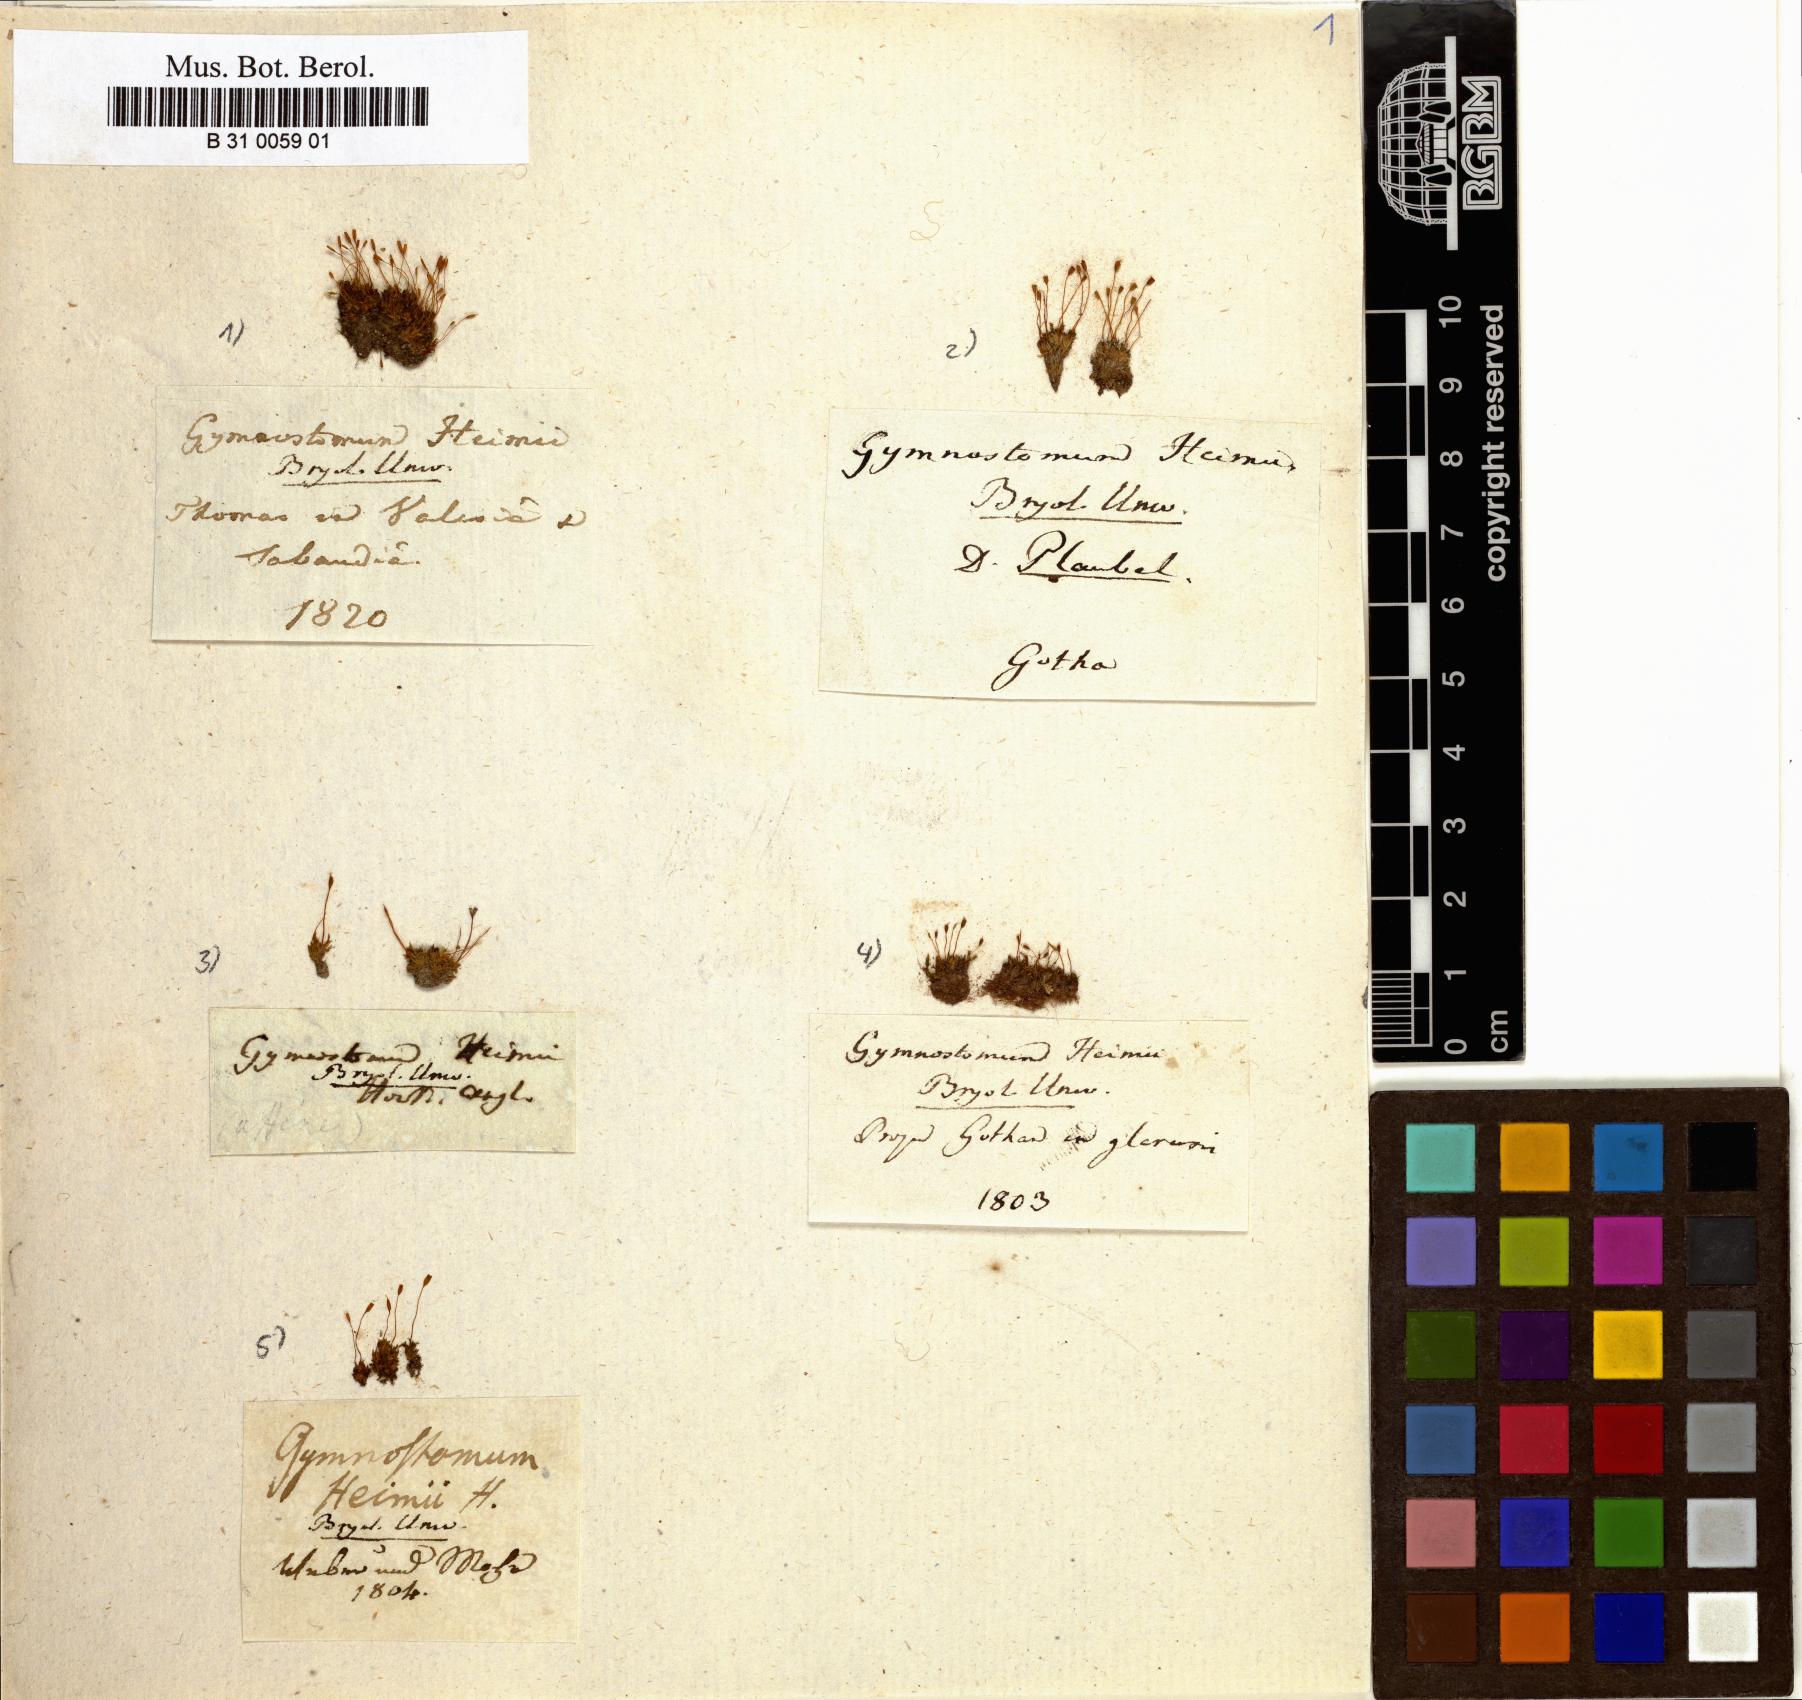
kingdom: Plantae
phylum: Bryophyta
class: Bryopsida
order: Pottiales
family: Pottiaceae
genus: Hennediella
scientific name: Hennediella heimii
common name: Heim's pottia
